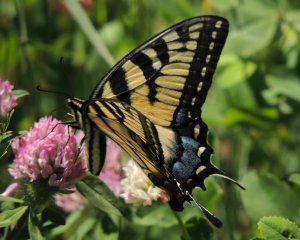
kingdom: Animalia
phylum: Arthropoda
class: Insecta
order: Lepidoptera
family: Papilionidae
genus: Pterourus
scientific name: Pterourus glaucus
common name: Eastern Tiger Swallowtail
